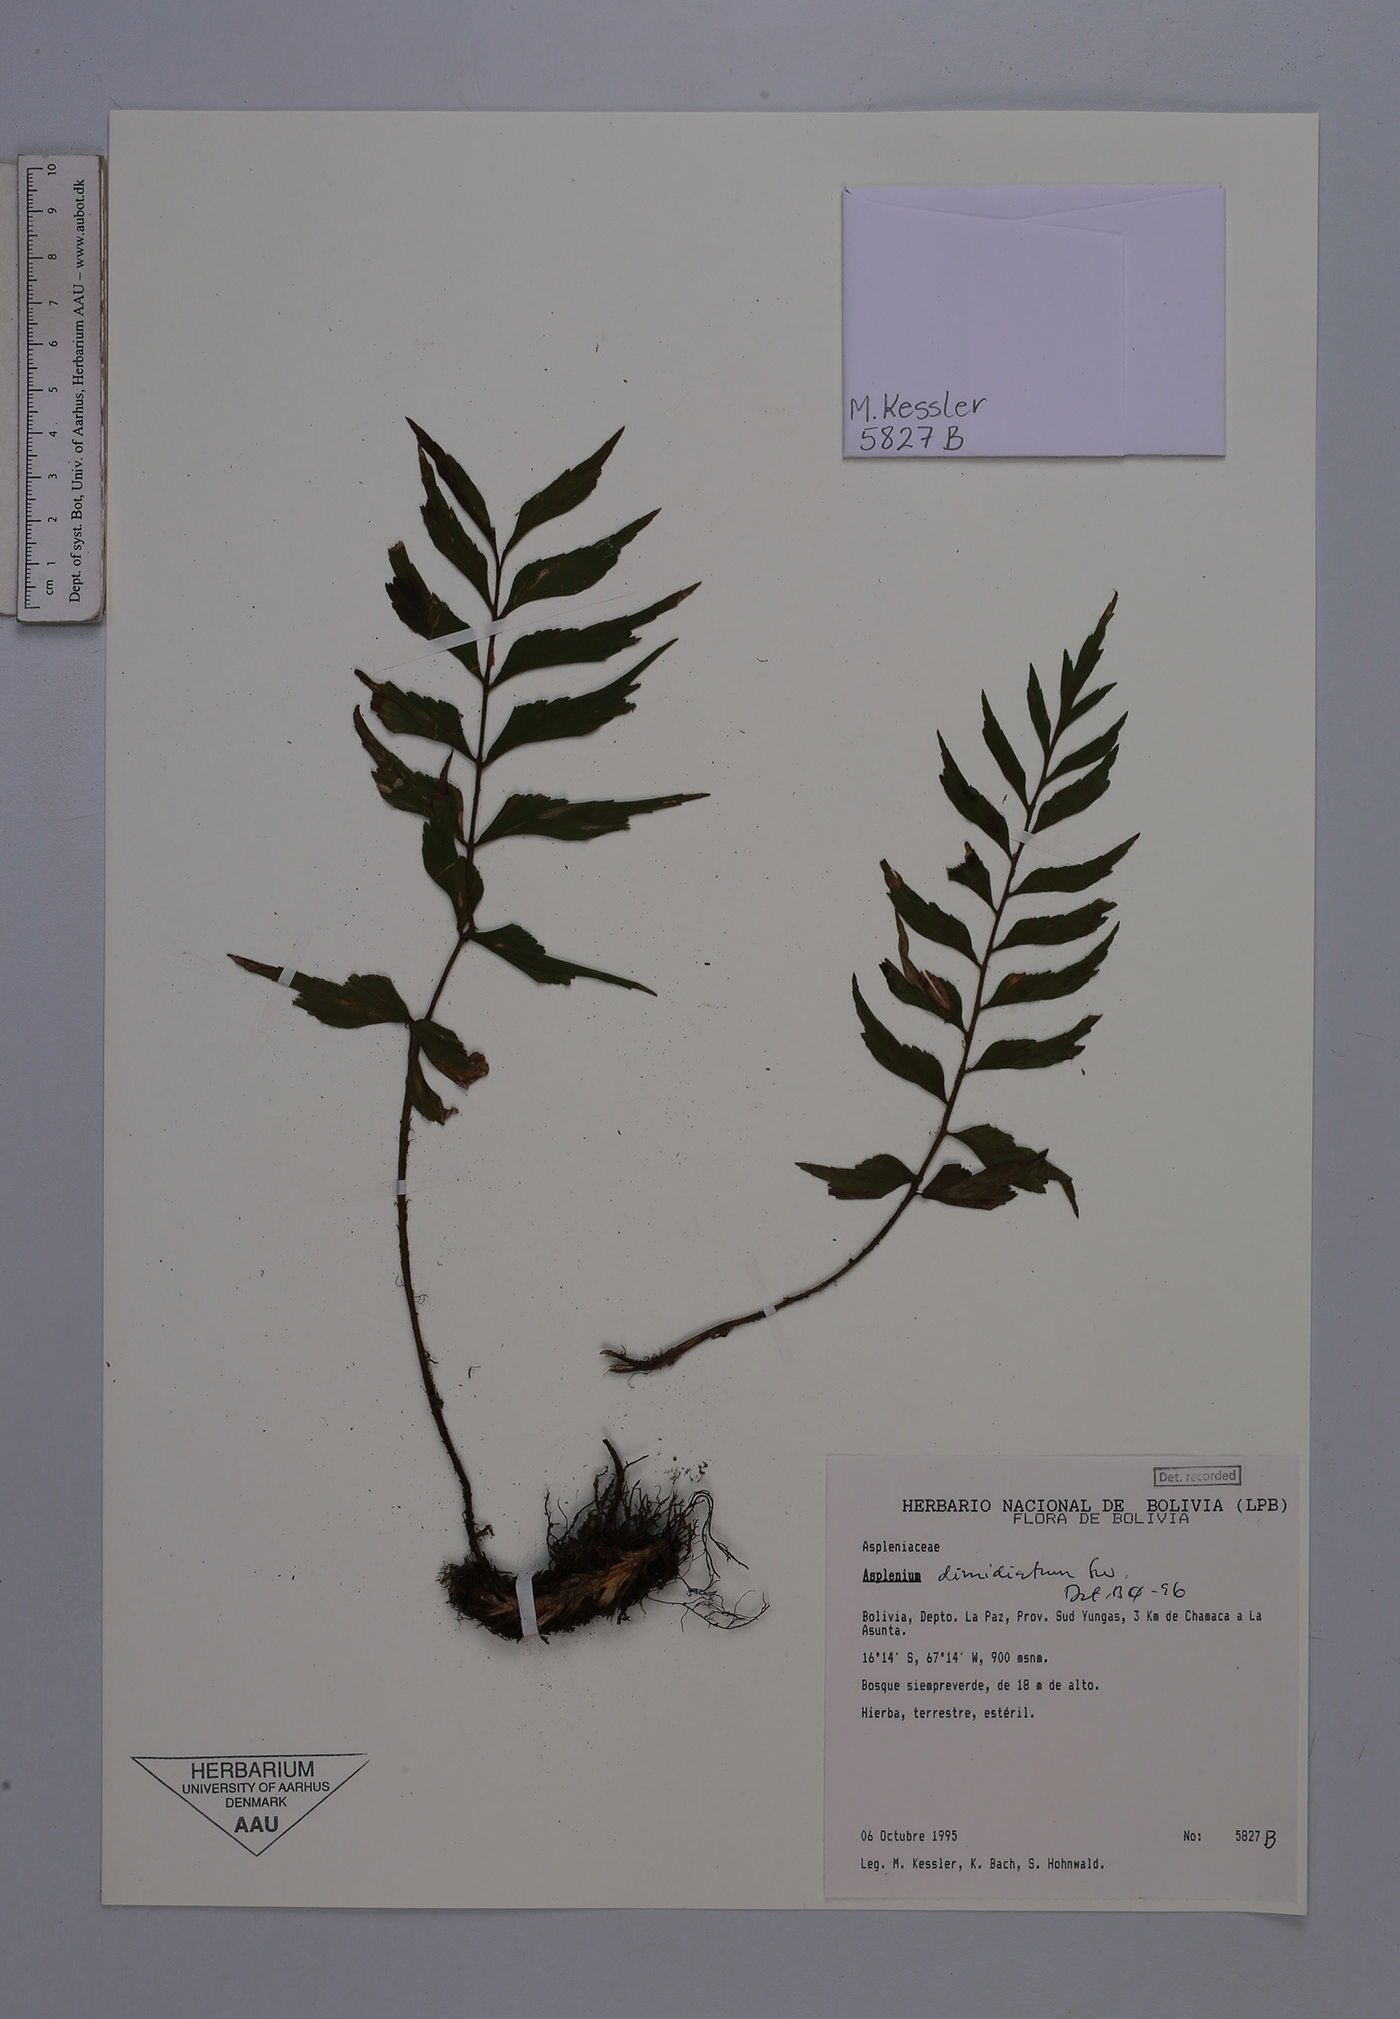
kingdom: Plantae
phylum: Tracheophyta
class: Polypodiopsida
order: Polypodiales
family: Aspleniaceae
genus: Asplenium
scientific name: Asplenium dimidiatum
